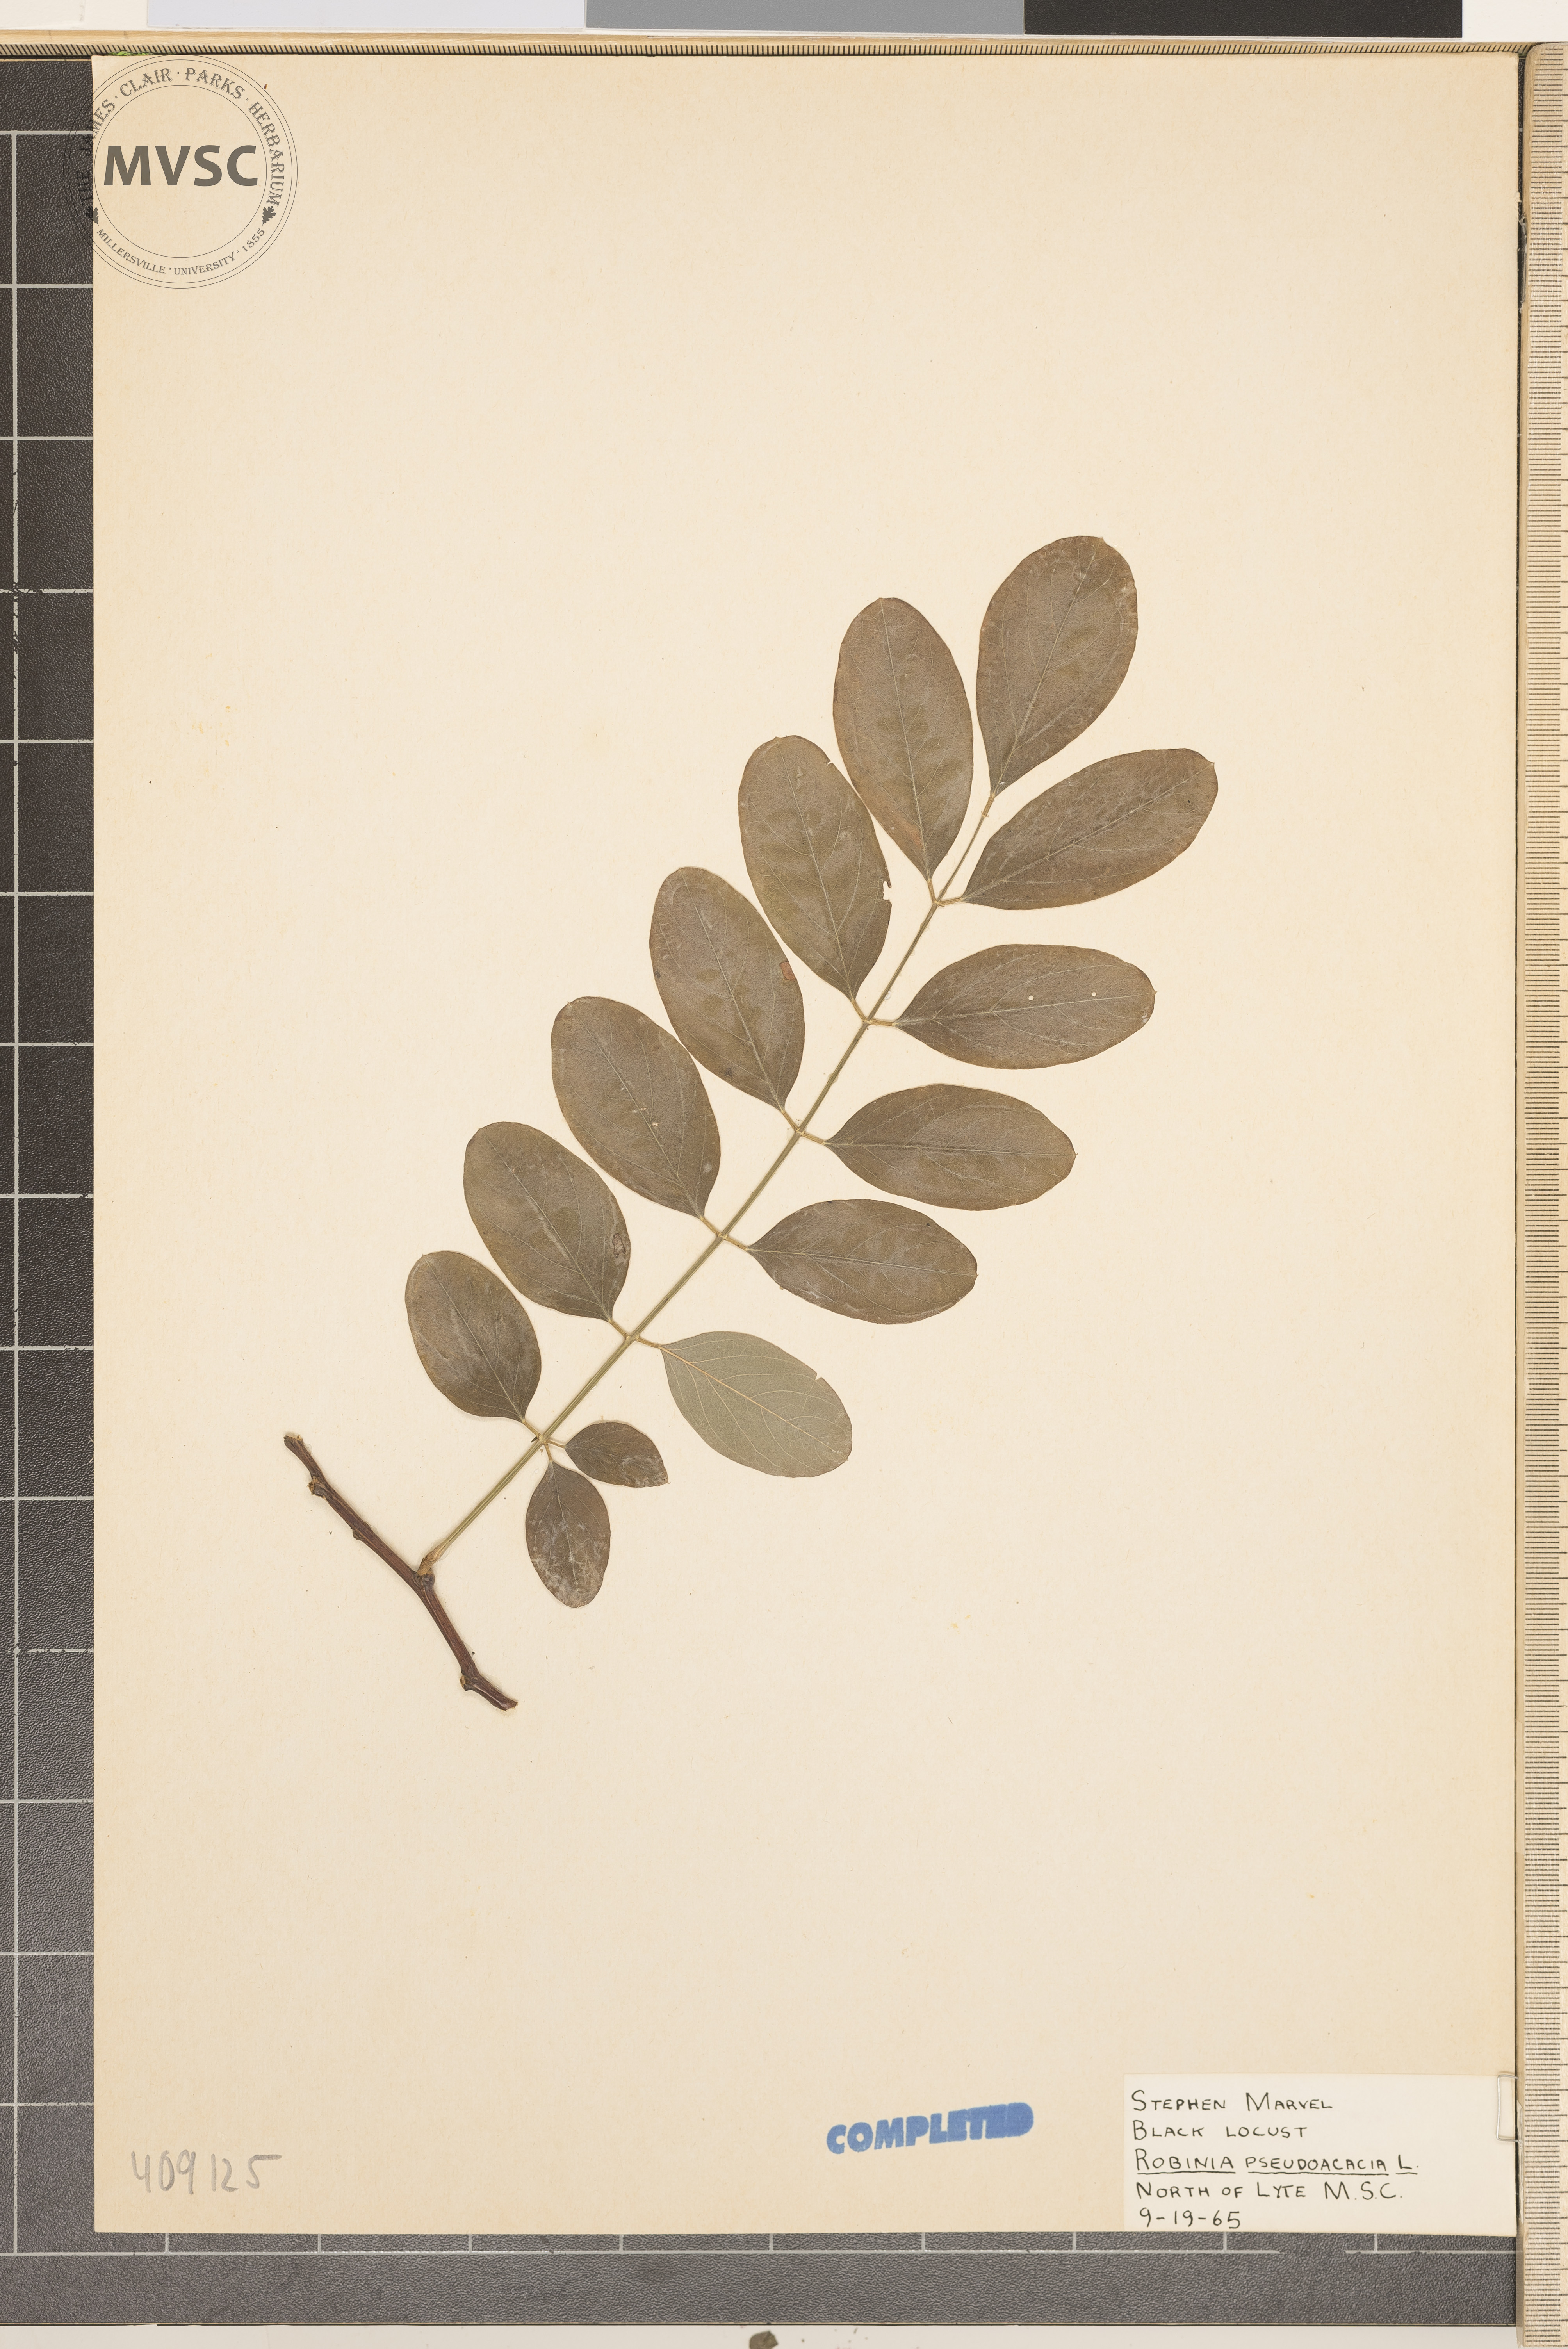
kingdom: Plantae
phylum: Tracheophyta
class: Magnoliopsida
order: Fabales
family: Fabaceae
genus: Robinia
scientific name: Robinia pseudoacacia
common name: Black locust
